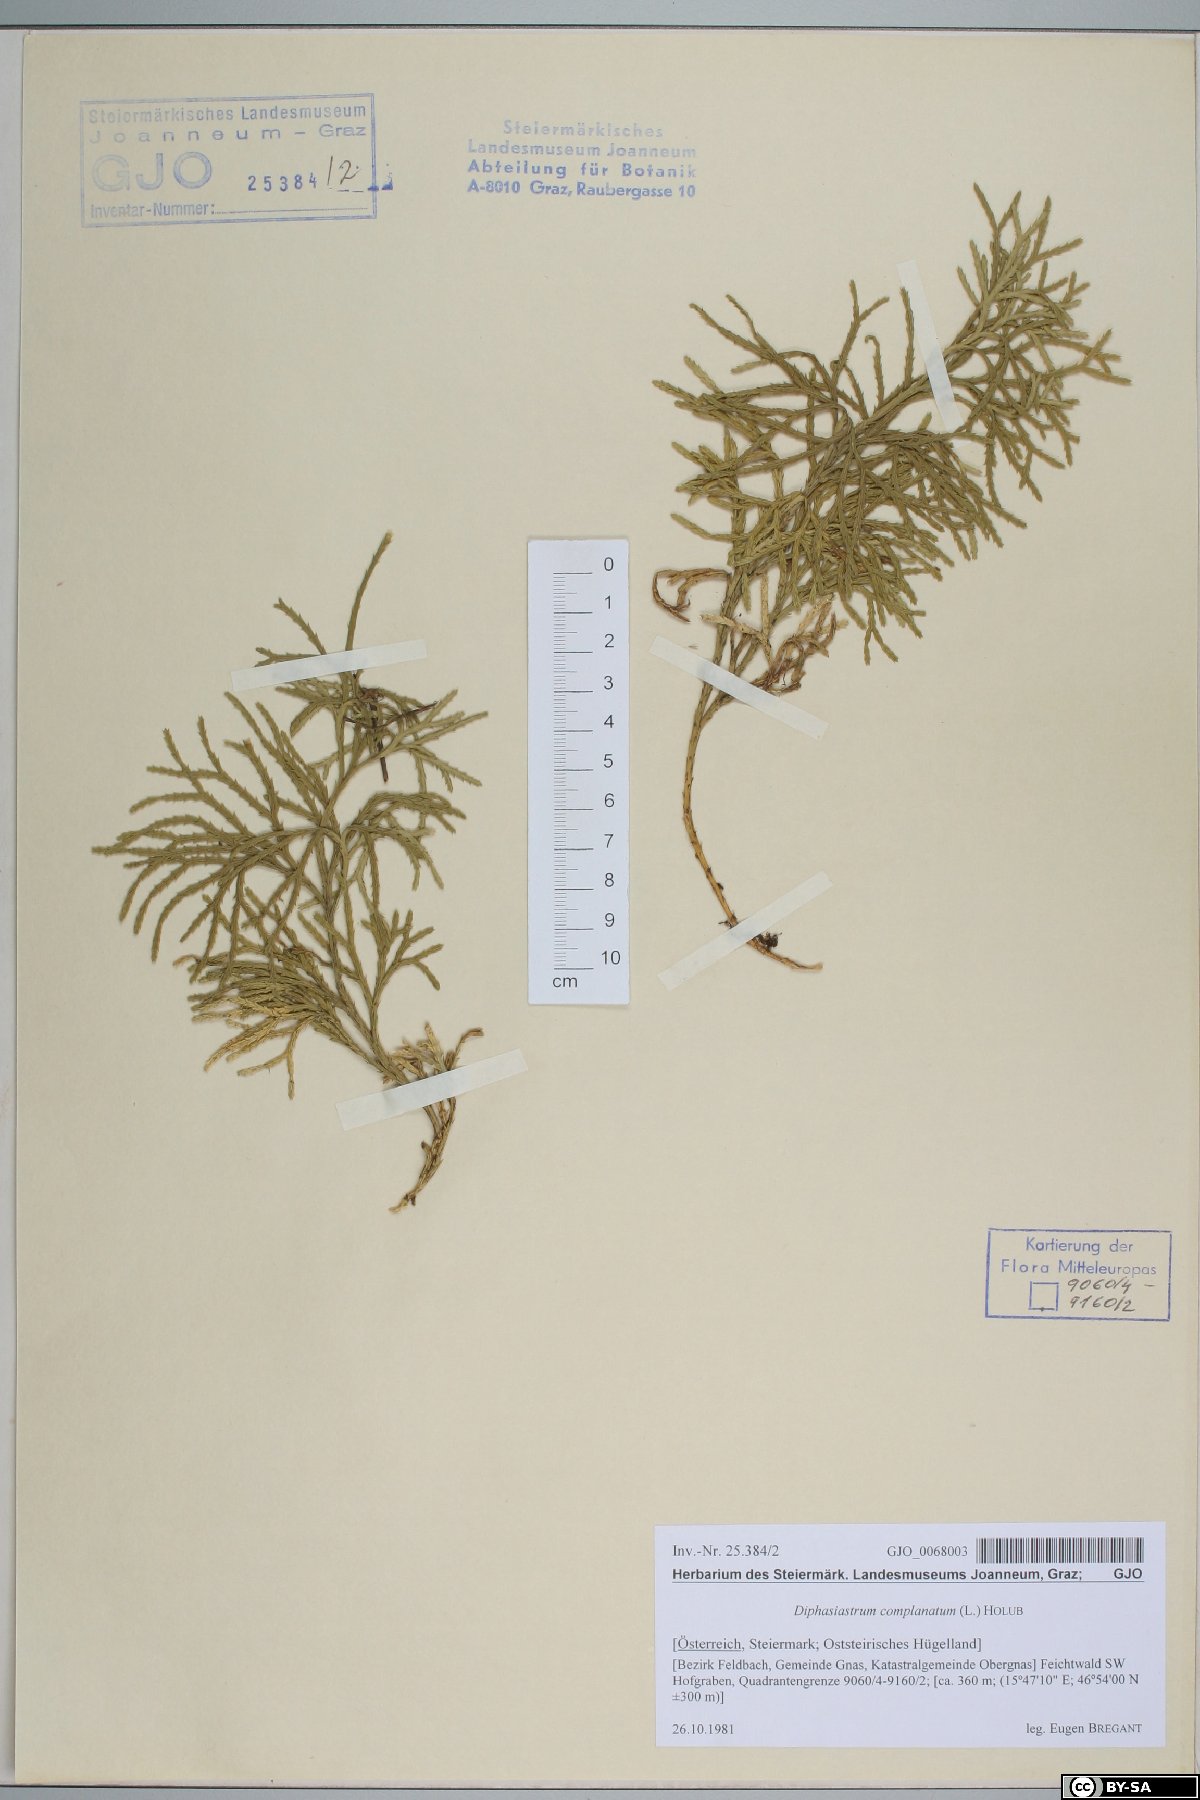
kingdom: Plantae
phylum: Tracheophyta
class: Lycopodiopsida
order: Lycopodiales
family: Lycopodiaceae
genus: Diphasiastrum
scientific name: Diphasiastrum complanatum
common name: Northern running-pine
